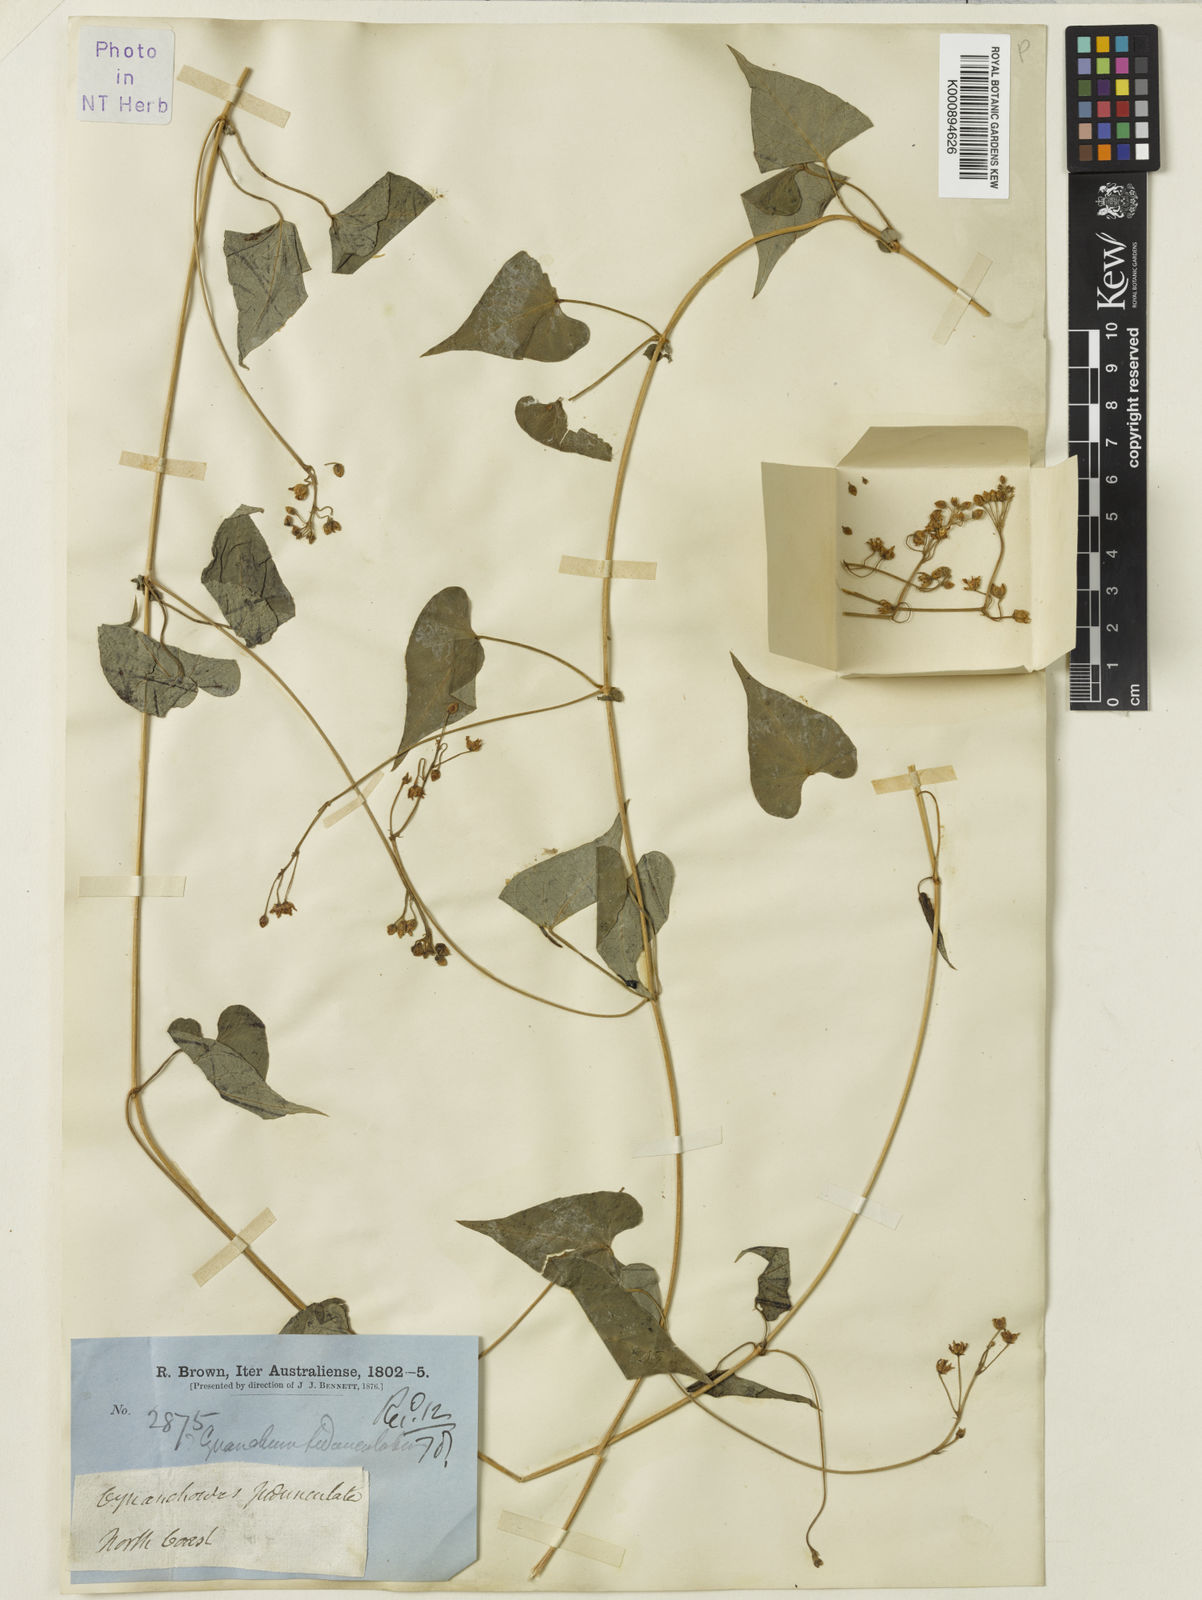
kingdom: Plantae
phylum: Tracheophyta
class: Magnoliopsida
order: Gentianales
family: Apocynaceae
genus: Vincetoxicum
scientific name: Vincetoxicum pedunculatum
